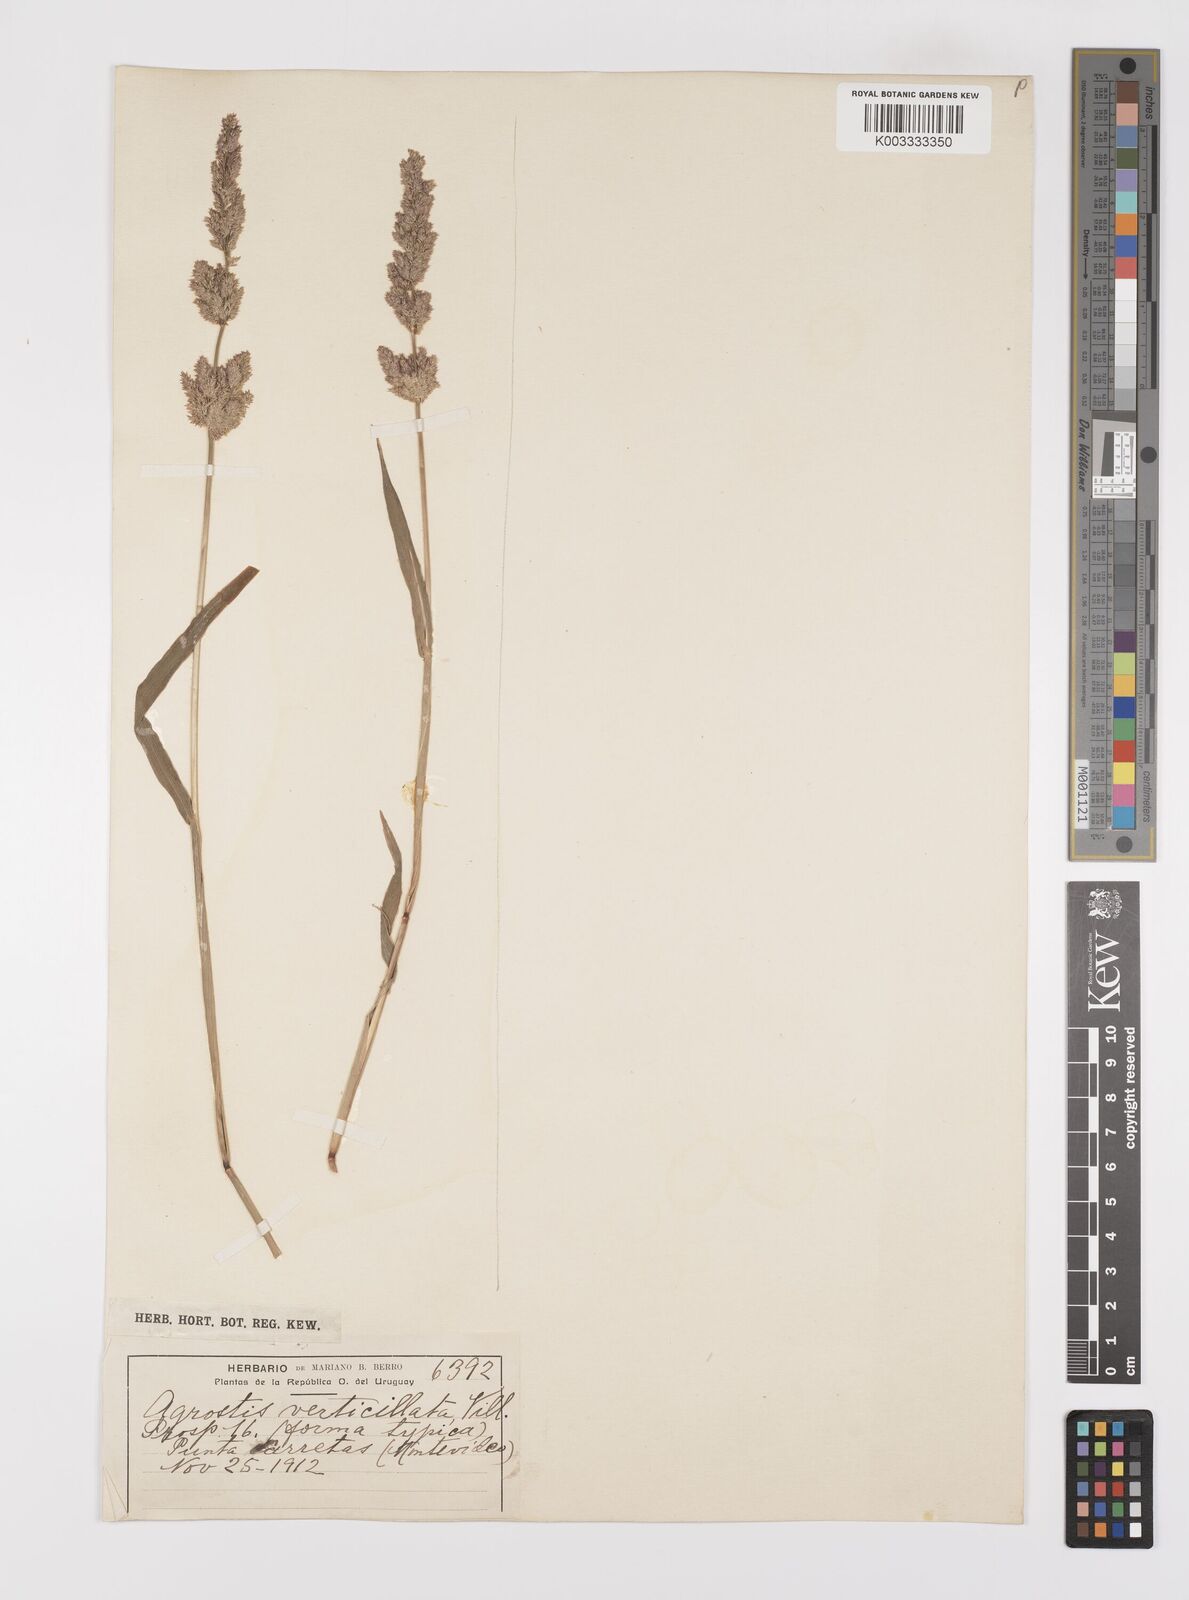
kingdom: Plantae
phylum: Tracheophyta
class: Liliopsida
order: Poales
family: Poaceae
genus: Polypogon
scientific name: Polypogon viridis
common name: Water bent
